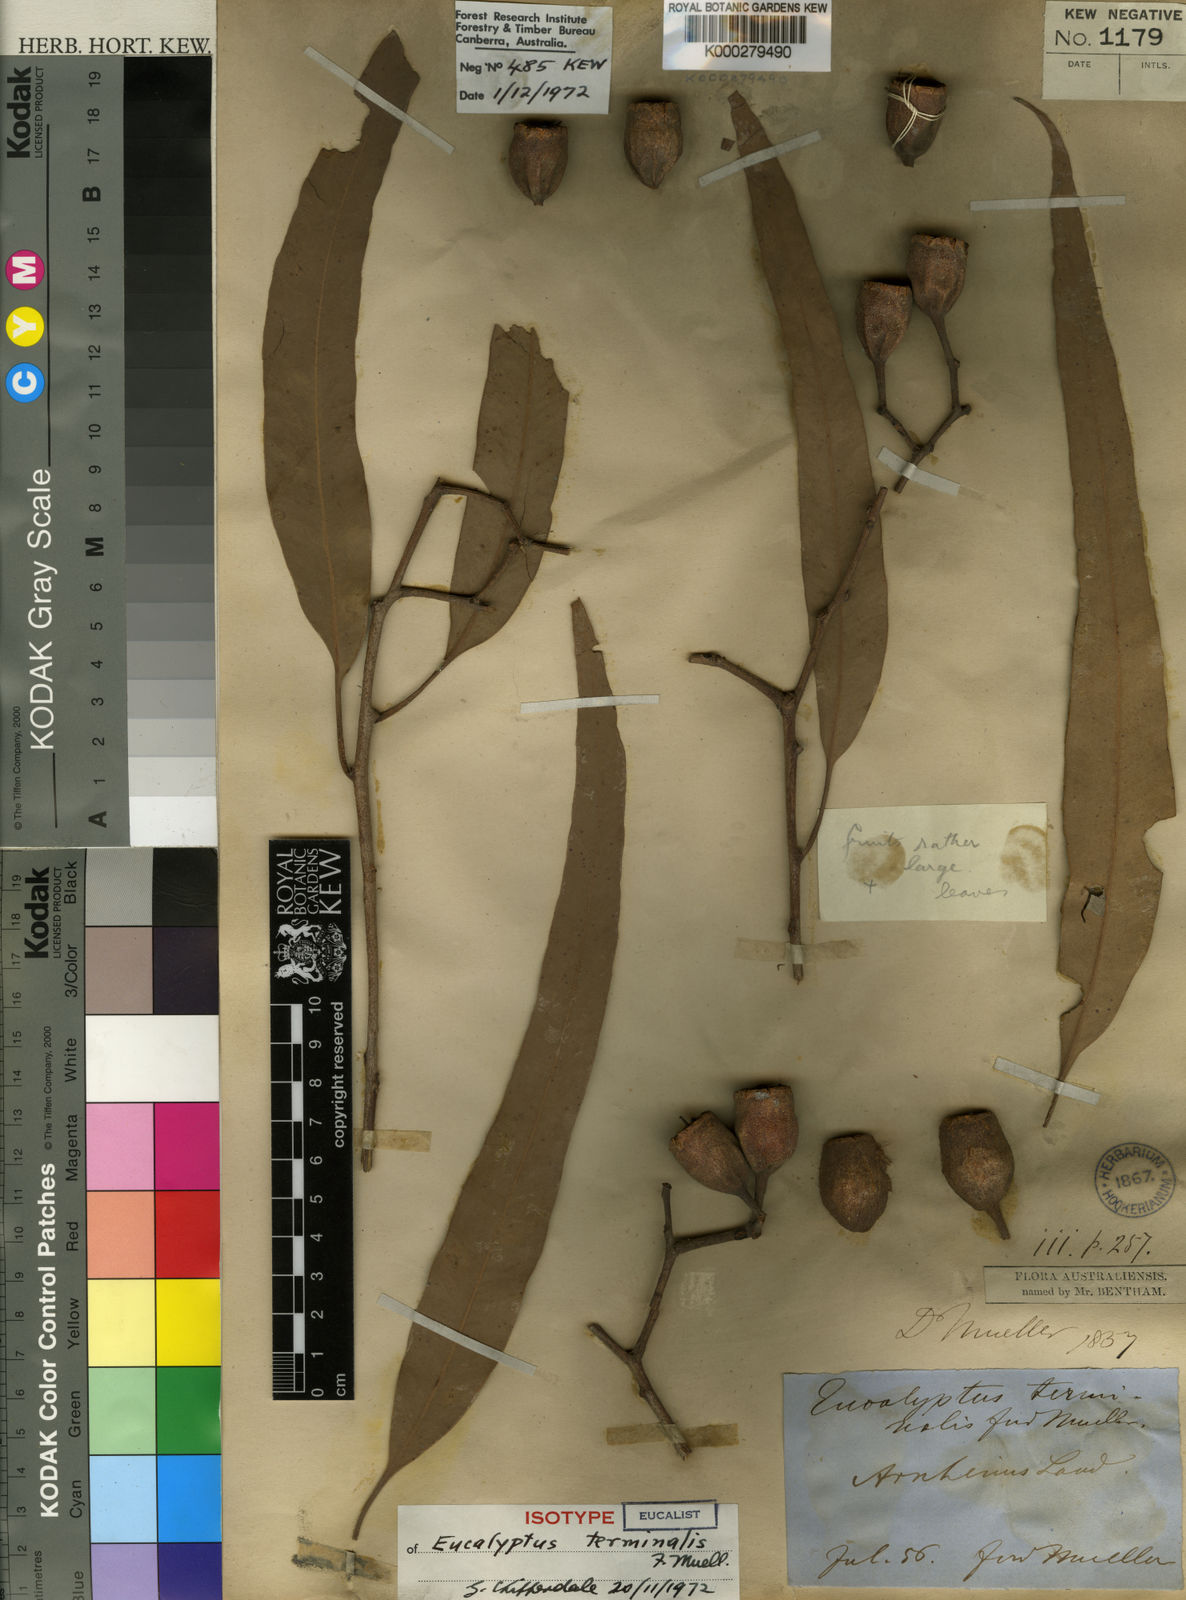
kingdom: Plantae
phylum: Tracheophyta
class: Magnoliopsida
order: Myrtales
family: Myrtaceae
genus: Corymbia
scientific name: Corymbia terminalis
